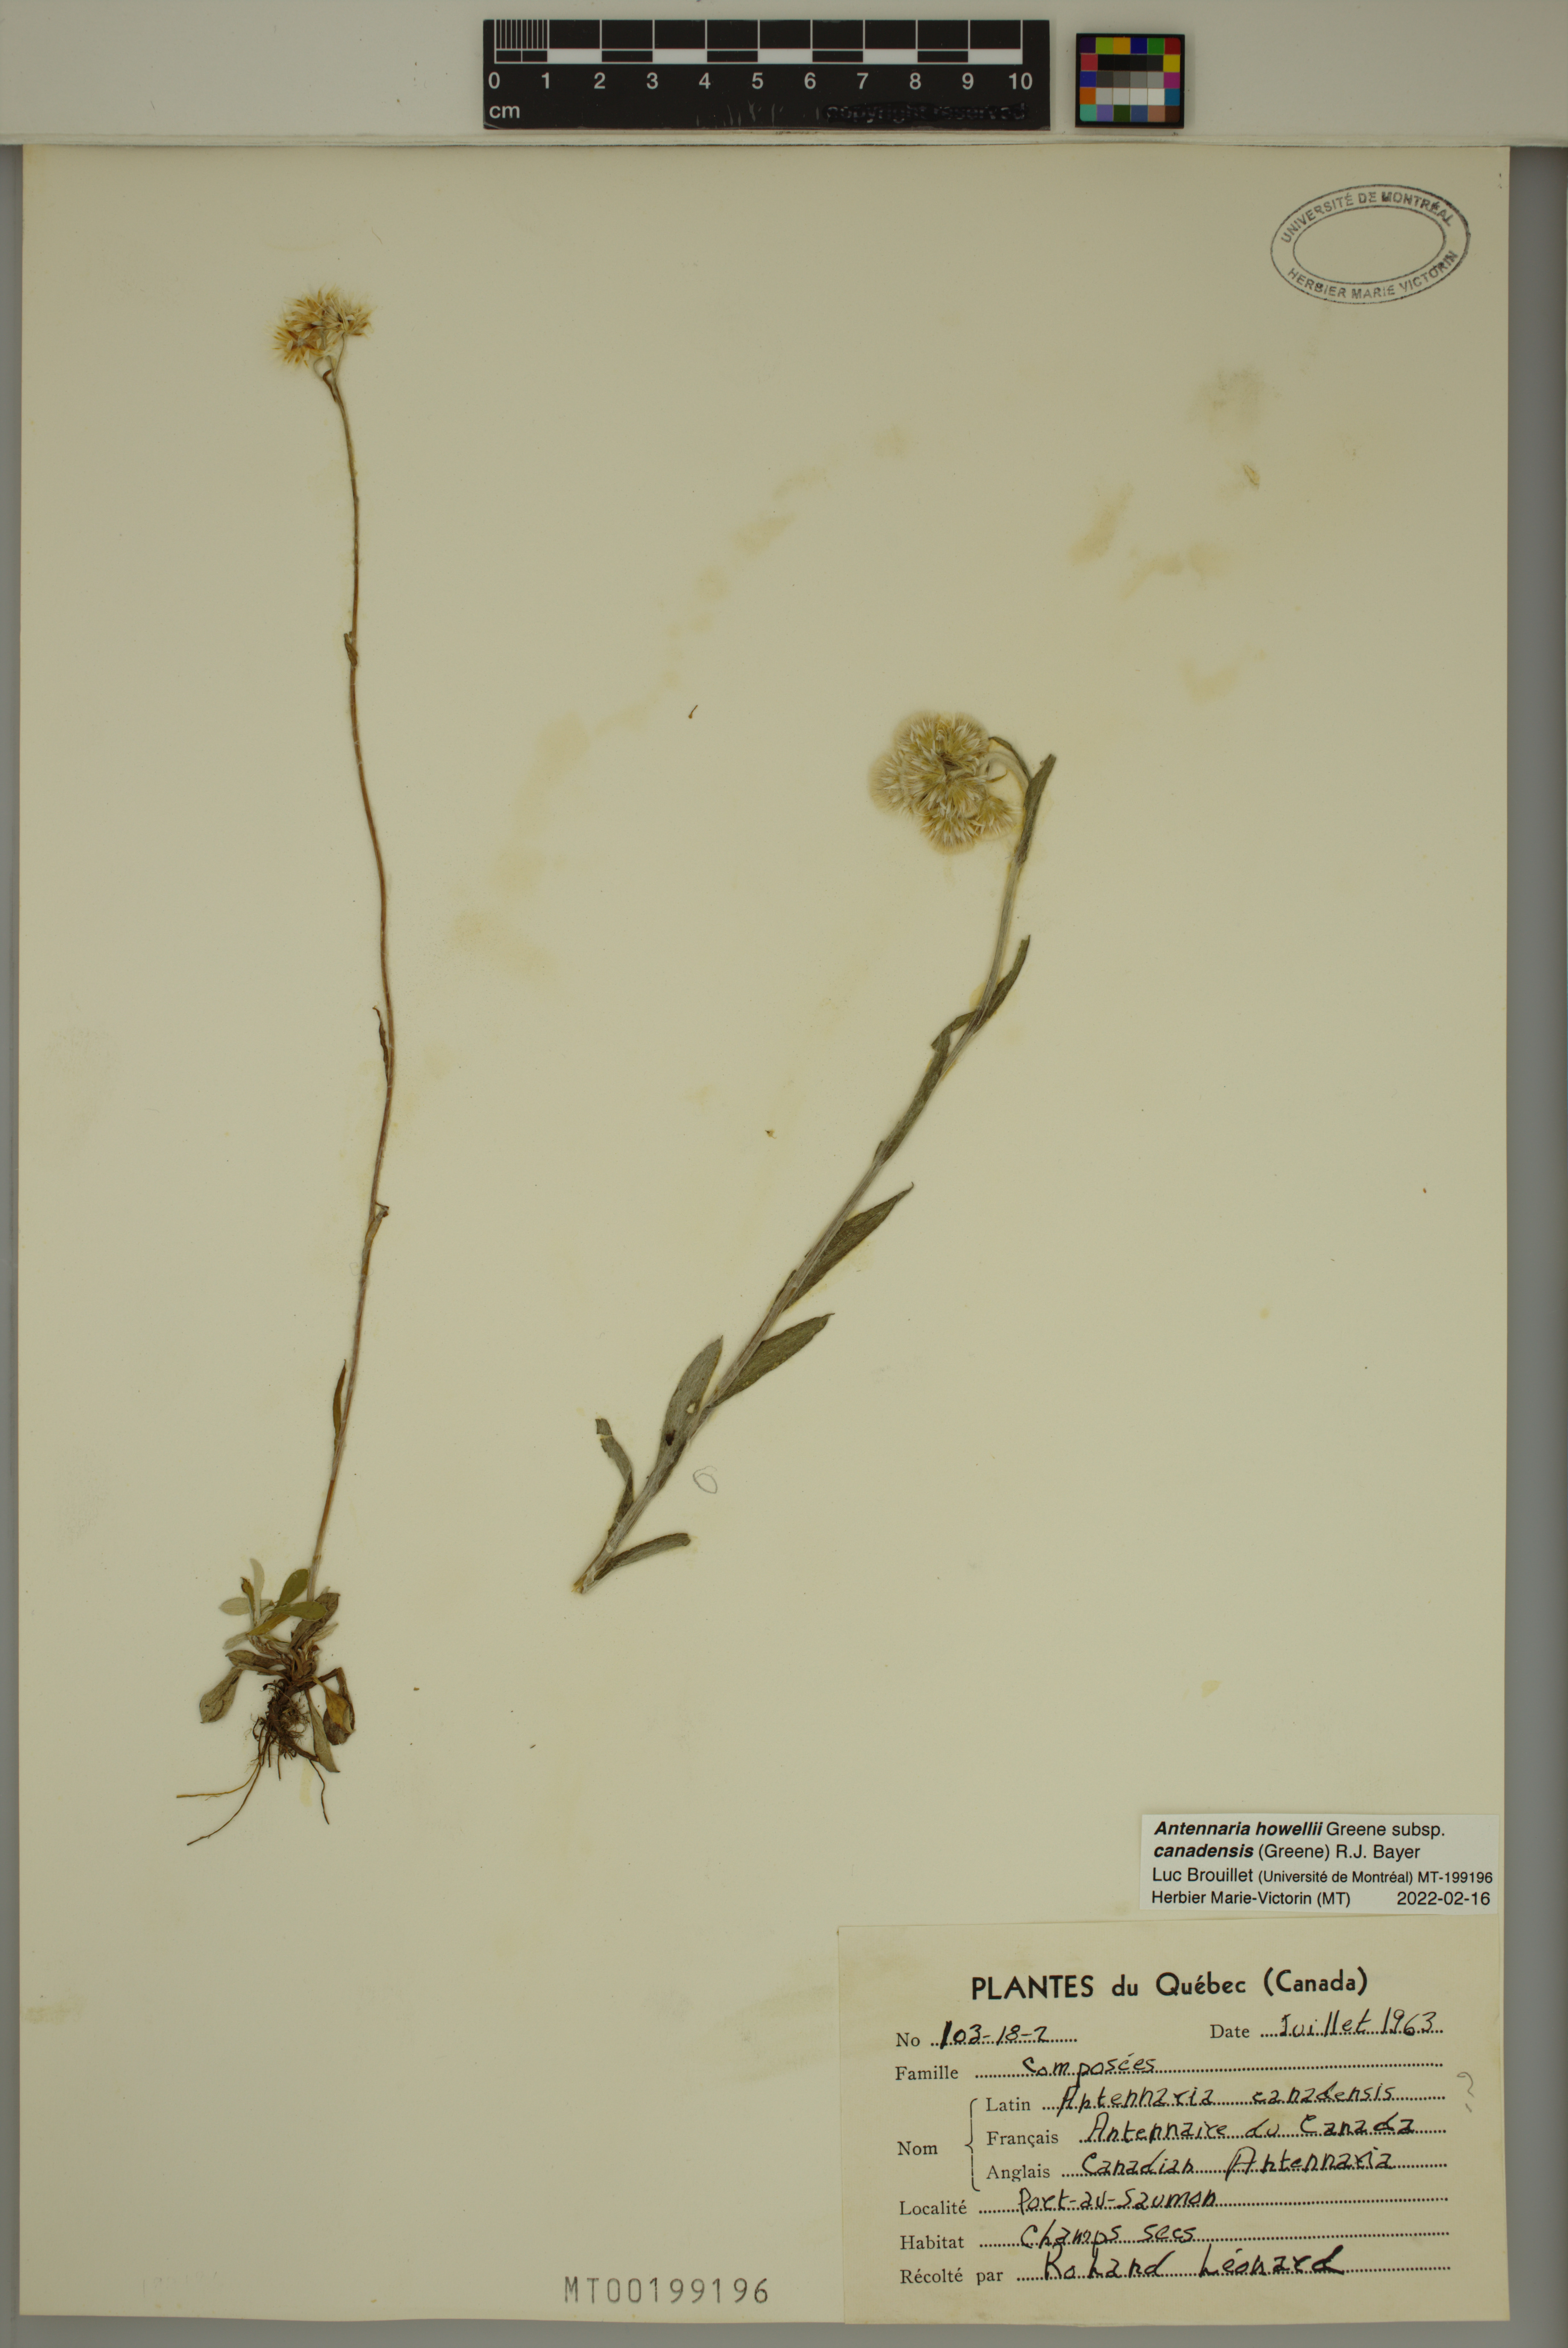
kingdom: Plantae
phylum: Tracheophyta
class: Magnoliopsida
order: Asterales
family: Asteraceae
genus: Antennaria
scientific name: Antennaria howellii
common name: Howell's pussytoes
